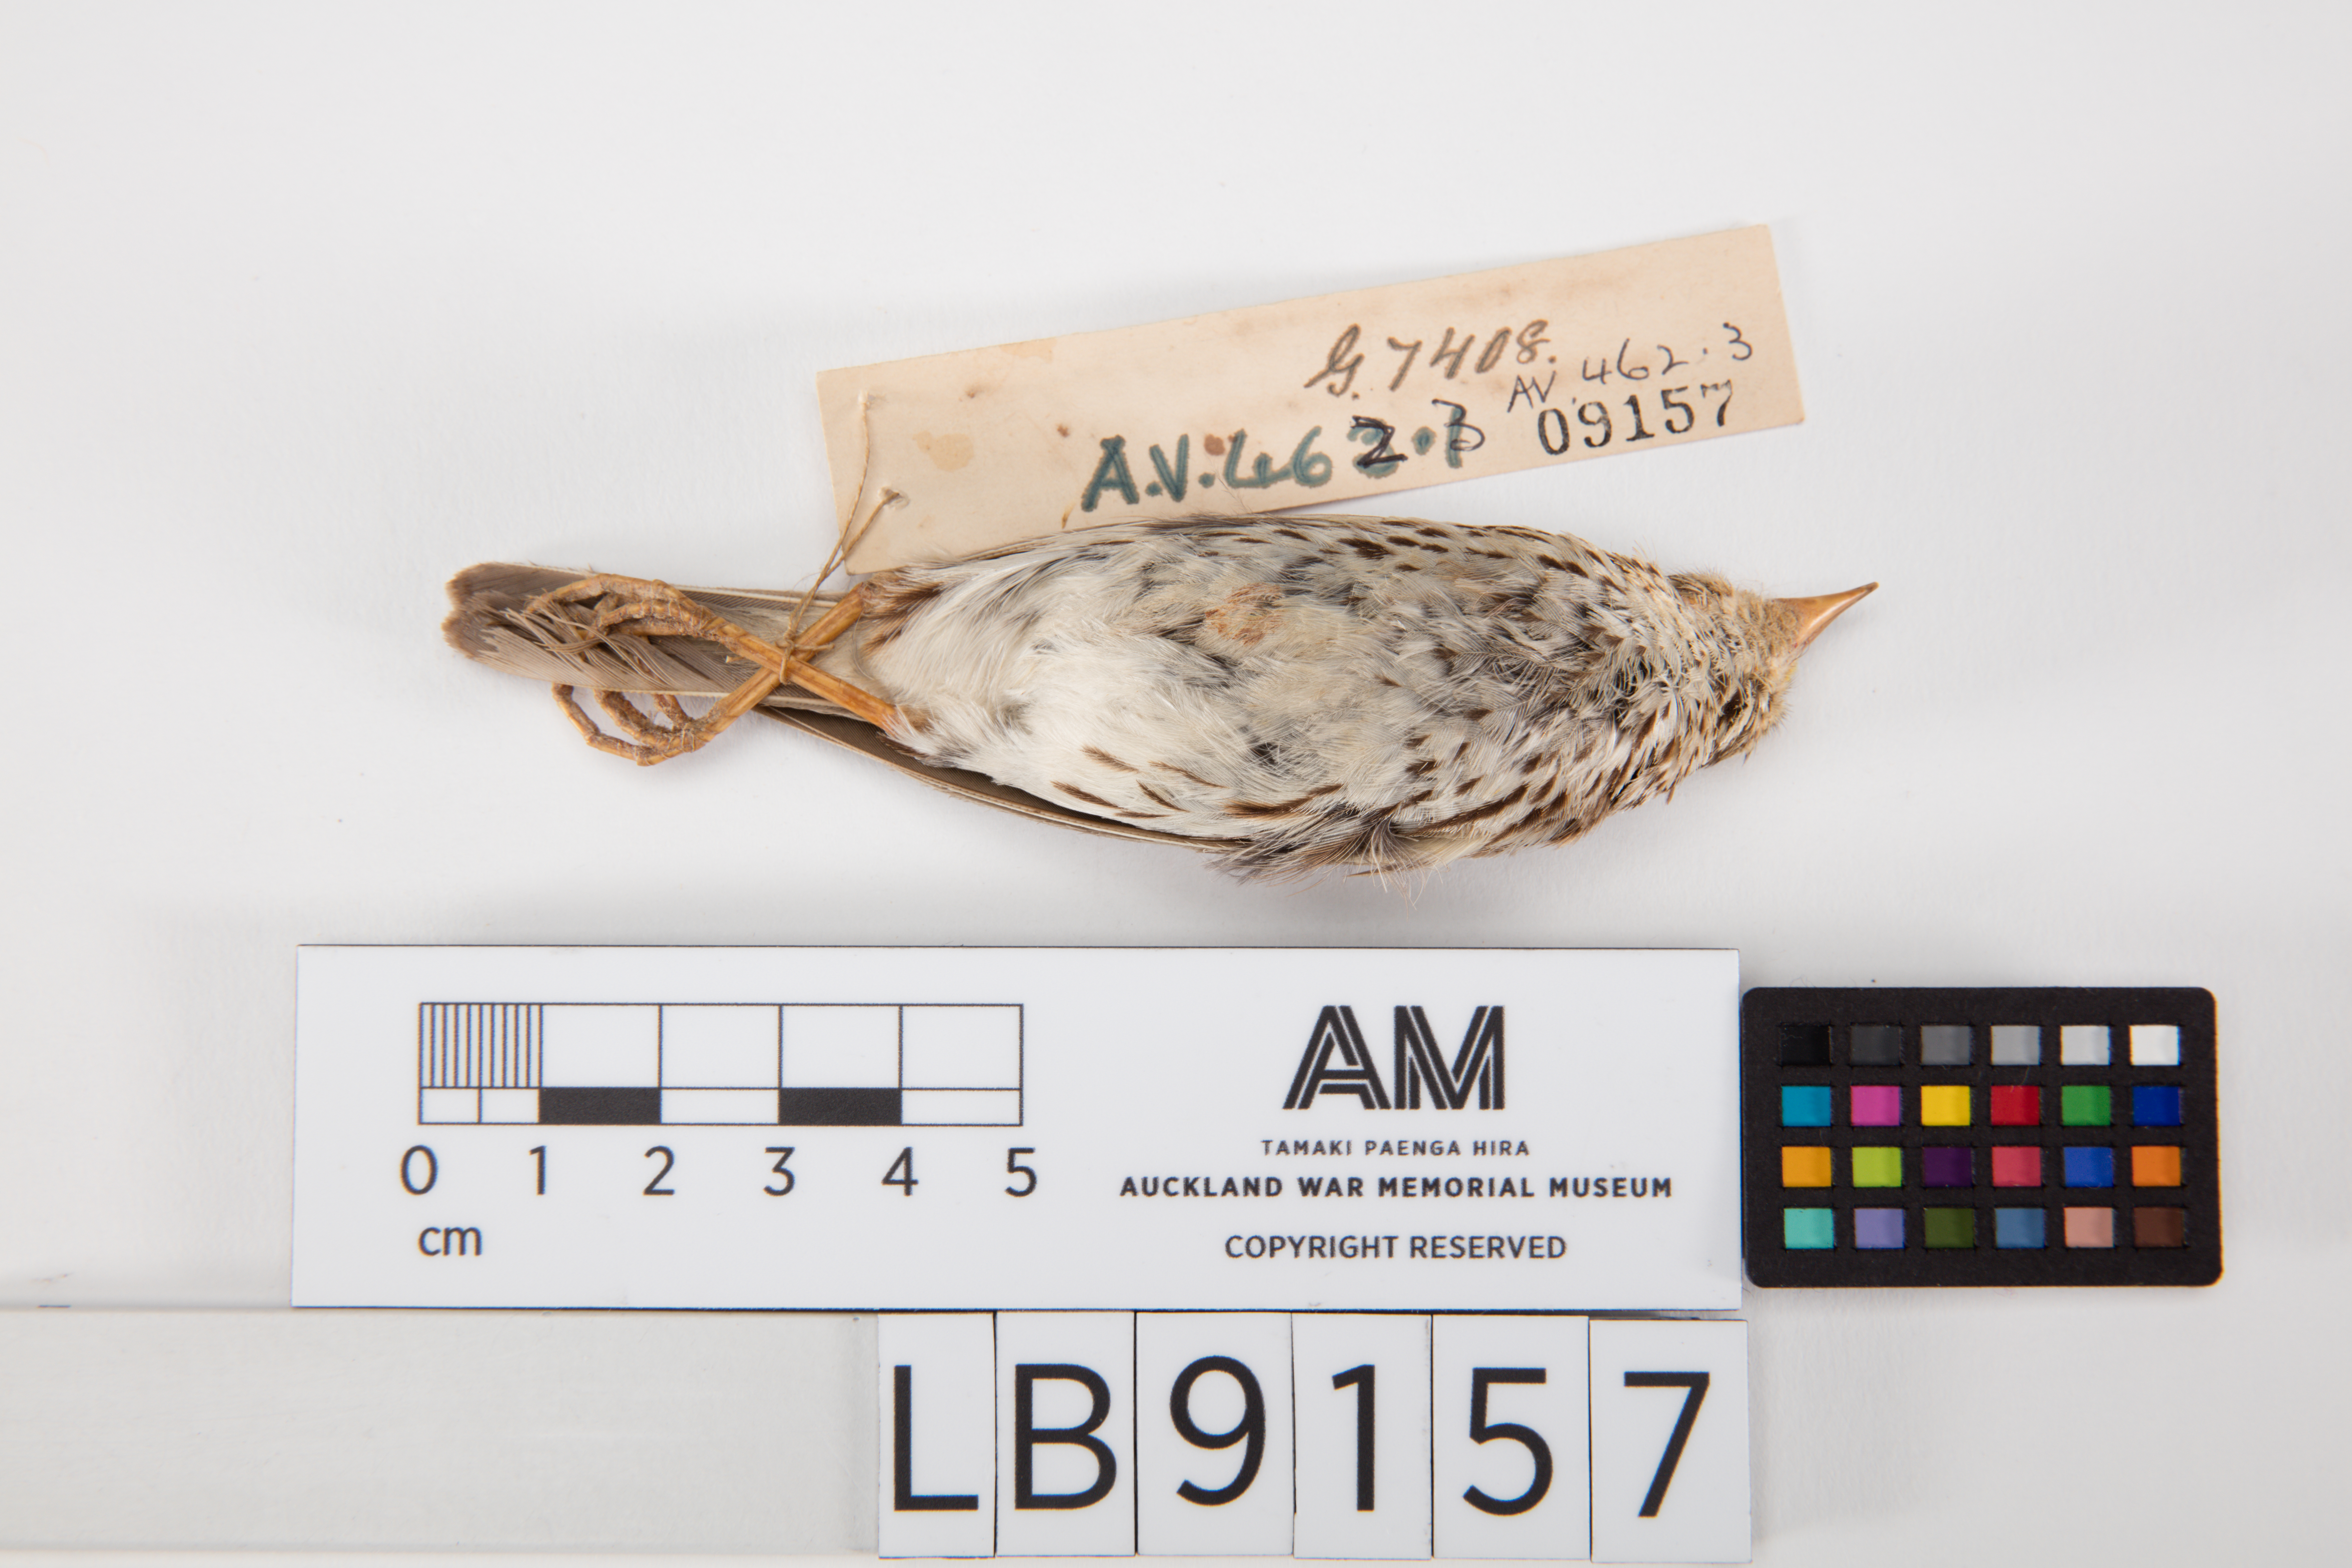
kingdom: Animalia
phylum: Chordata
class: Aves
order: Passeriformes
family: Passerellidae
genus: Passerculus
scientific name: Passerculus sandwichensis
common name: Savannah sparrow
